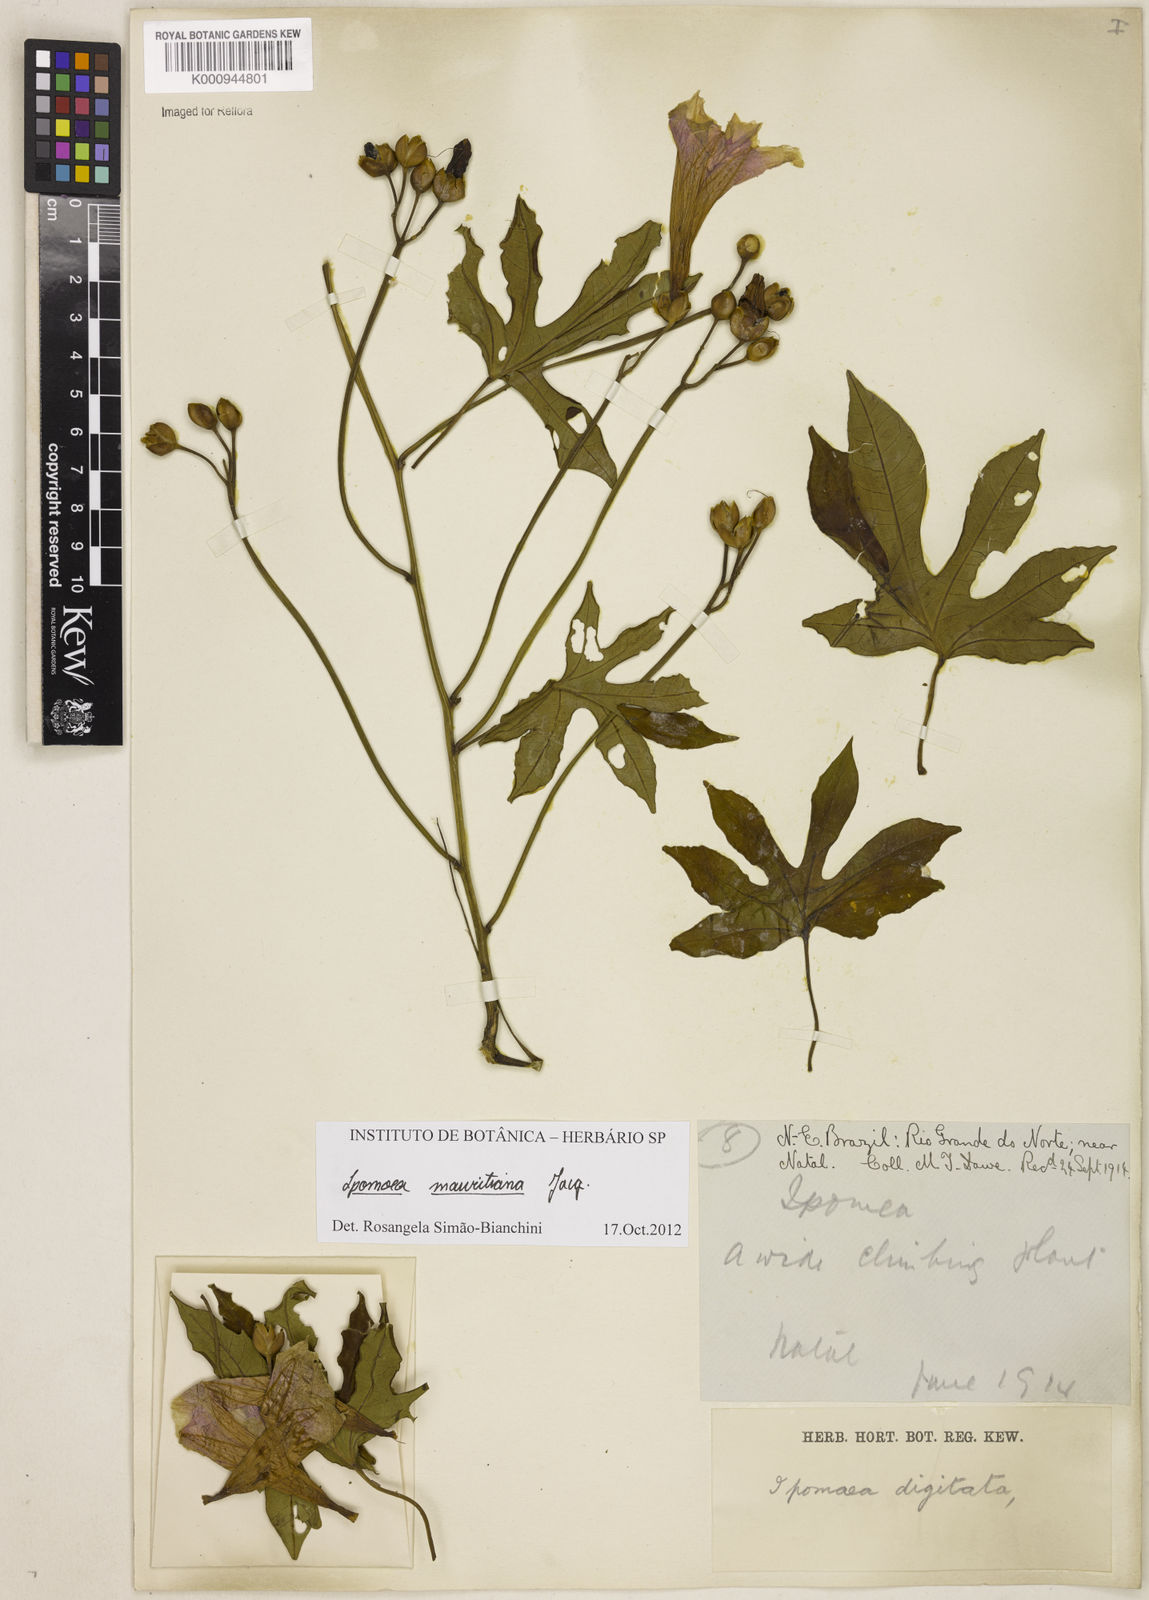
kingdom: Plantae
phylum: Tracheophyta
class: Magnoliopsida
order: Solanales
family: Convolvulaceae
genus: Ipomoea
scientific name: Ipomoea digitata
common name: Finger-leaf morning-glory
